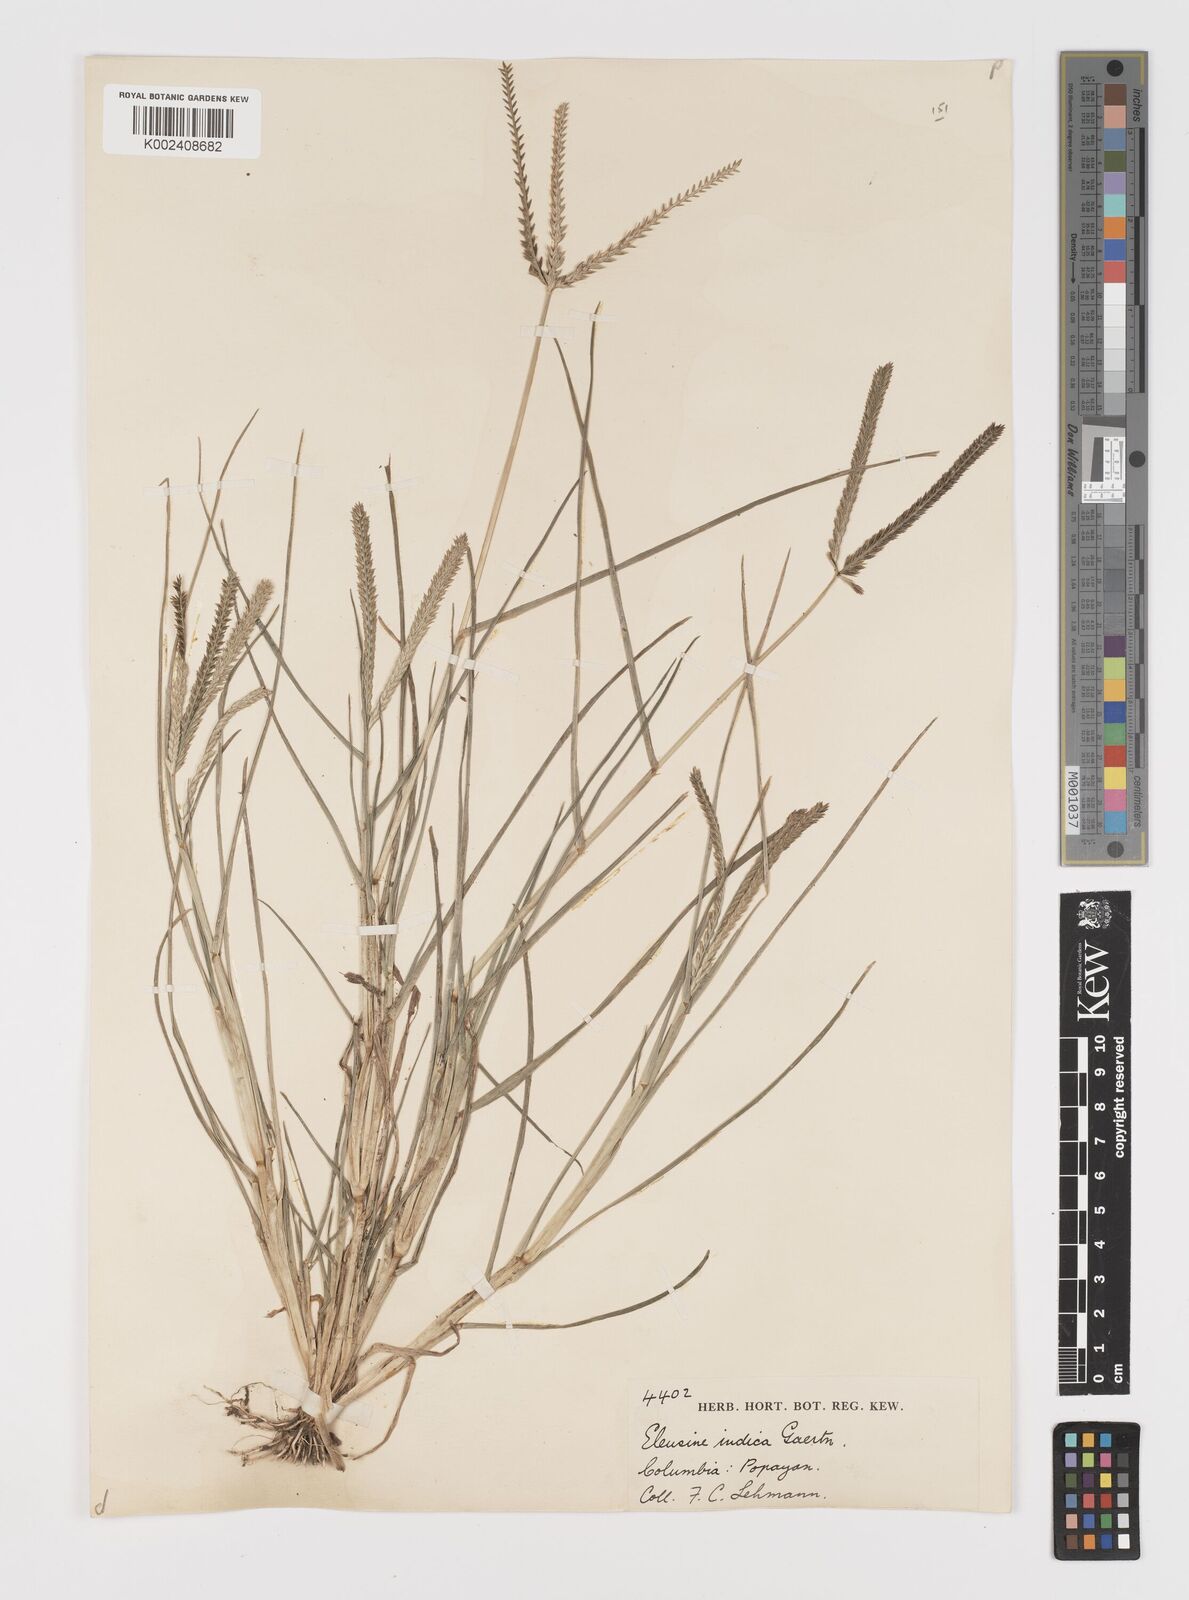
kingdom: Plantae
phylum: Tracheophyta
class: Liliopsida
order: Poales
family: Poaceae
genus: Eleusine
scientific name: Eleusine indica
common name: Yard-grass
